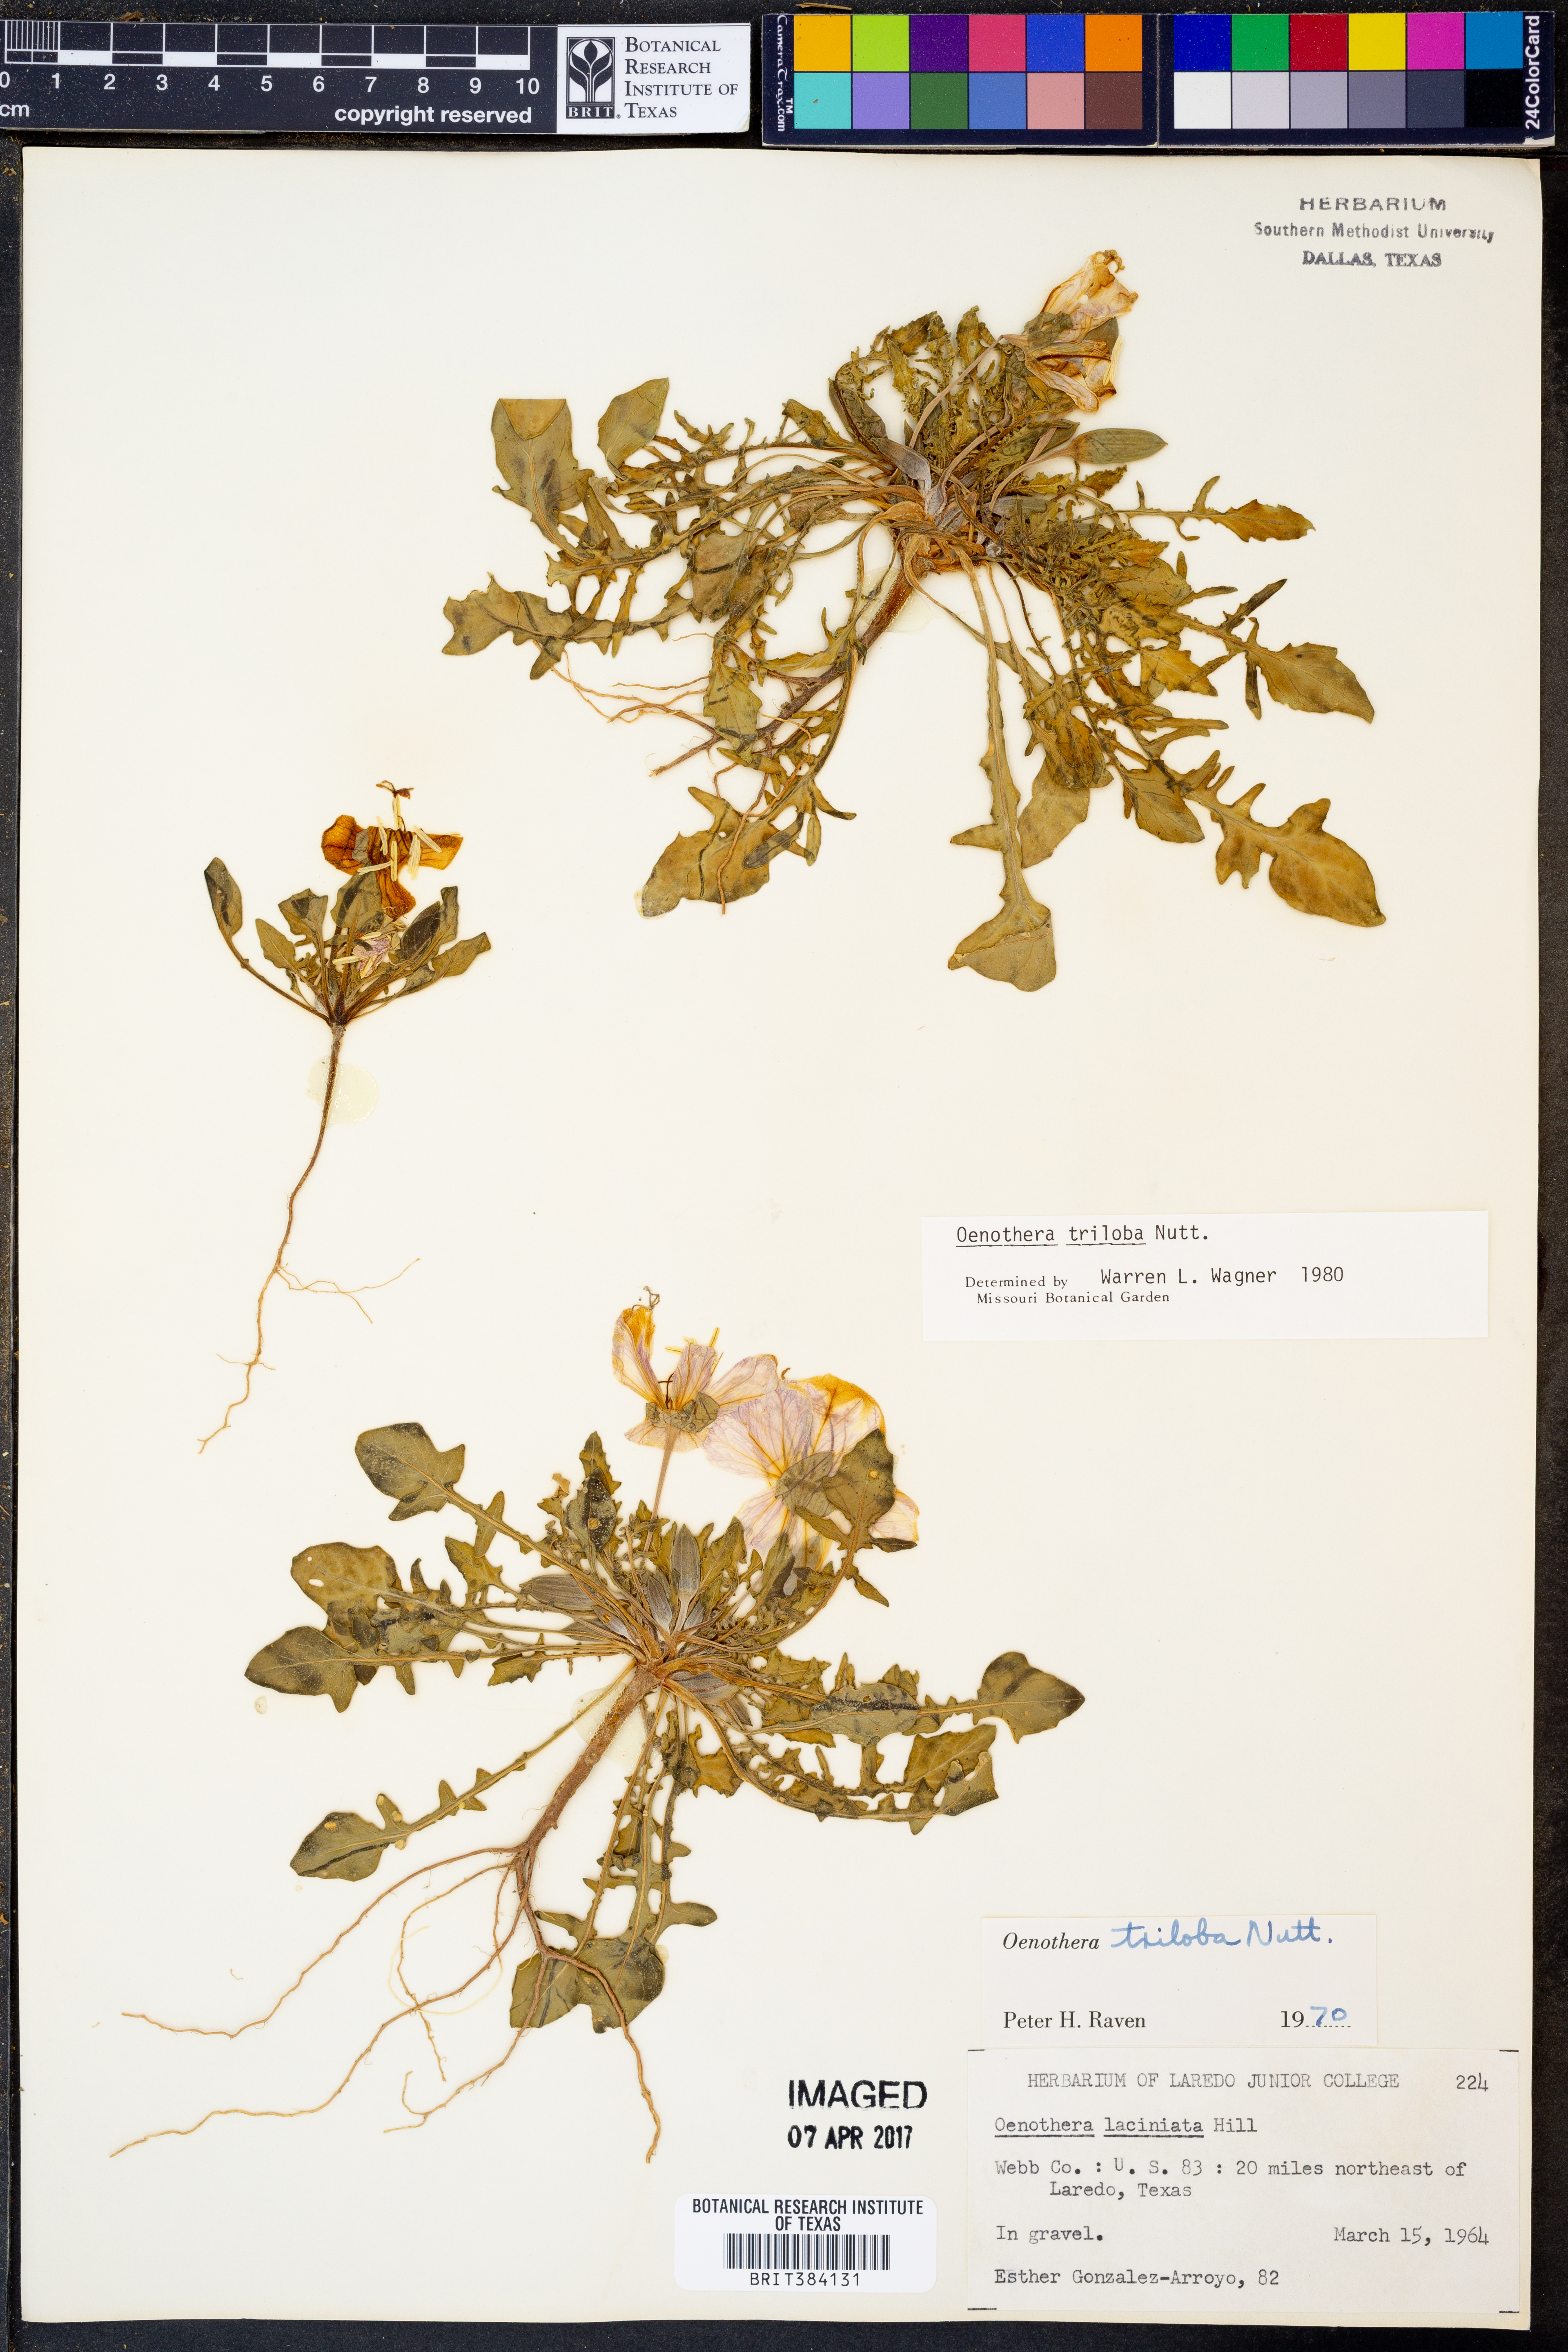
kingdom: Plantae
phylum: Tracheophyta
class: Magnoliopsida
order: Myrtales
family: Onagraceae
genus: Oenothera
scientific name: Oenothera laciniata
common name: Cut-leaved evening-primrose
